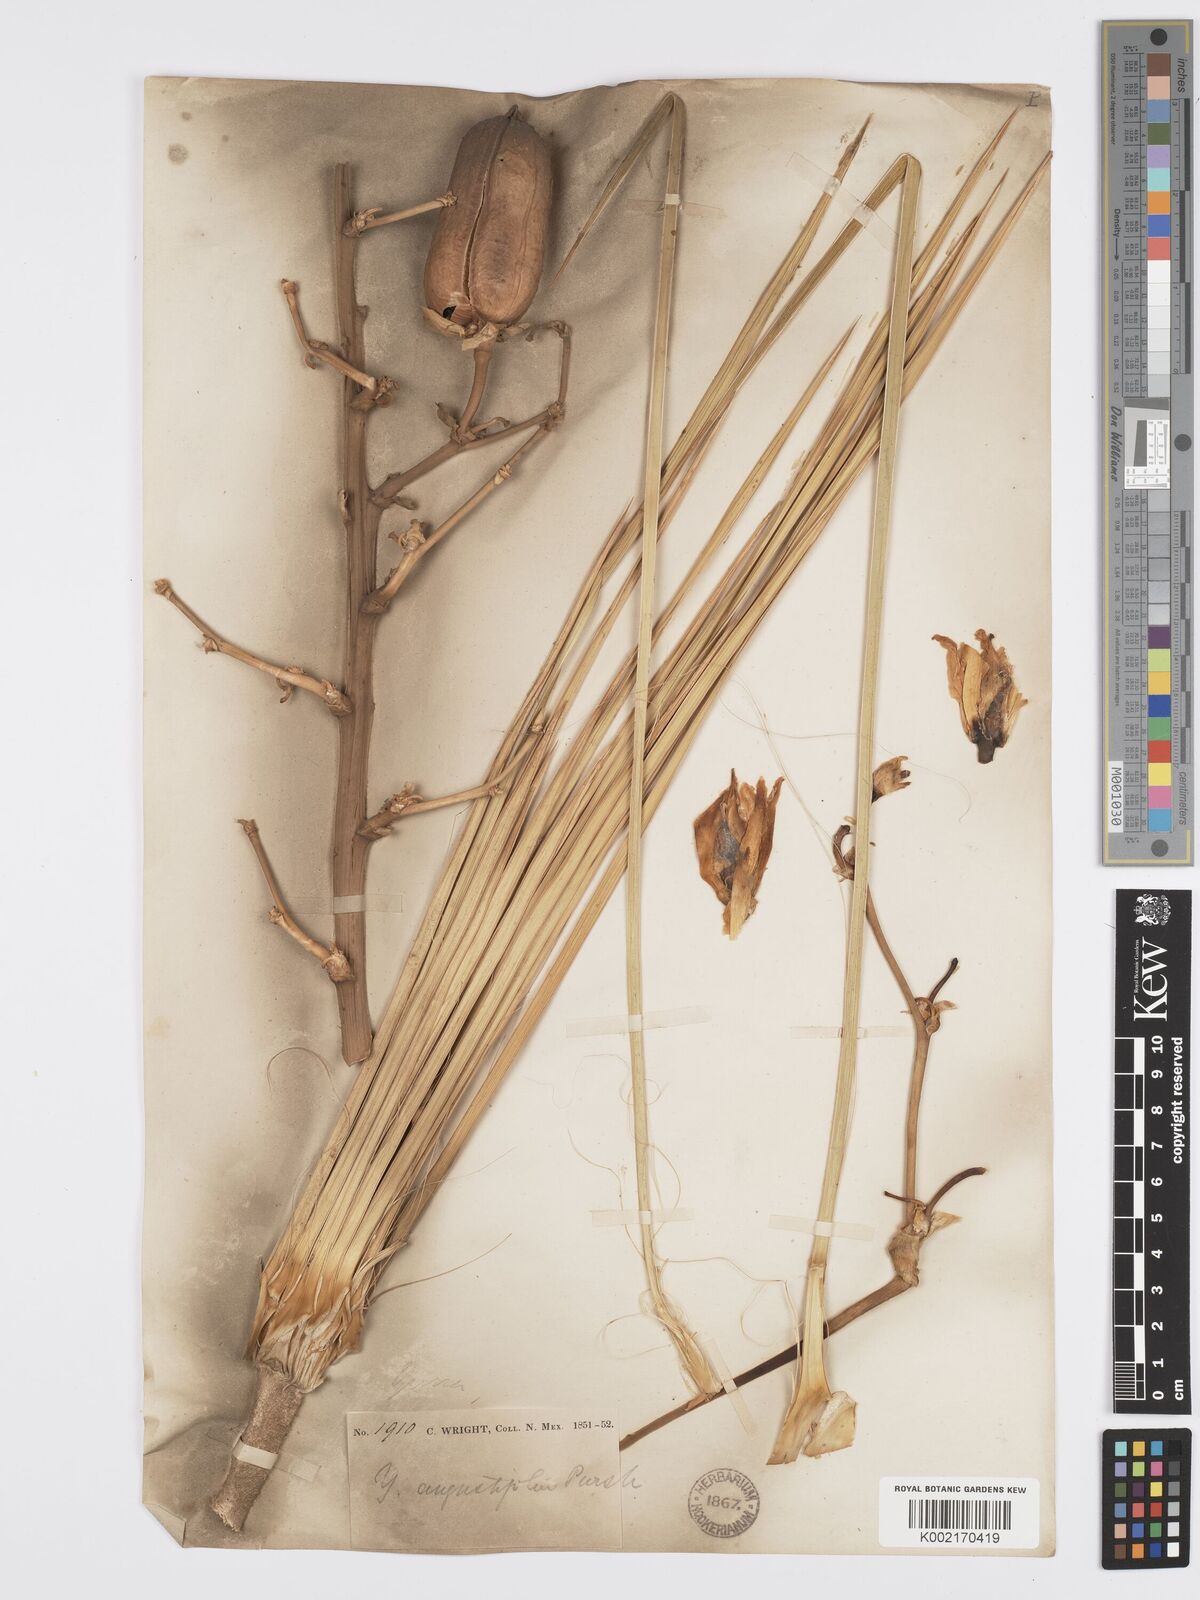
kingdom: Plantae
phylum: Tracheophyta
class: Liliopsida
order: Asparagales
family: Asparagaceae
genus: Yucca
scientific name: Yucca glauca
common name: Great plains yucca
